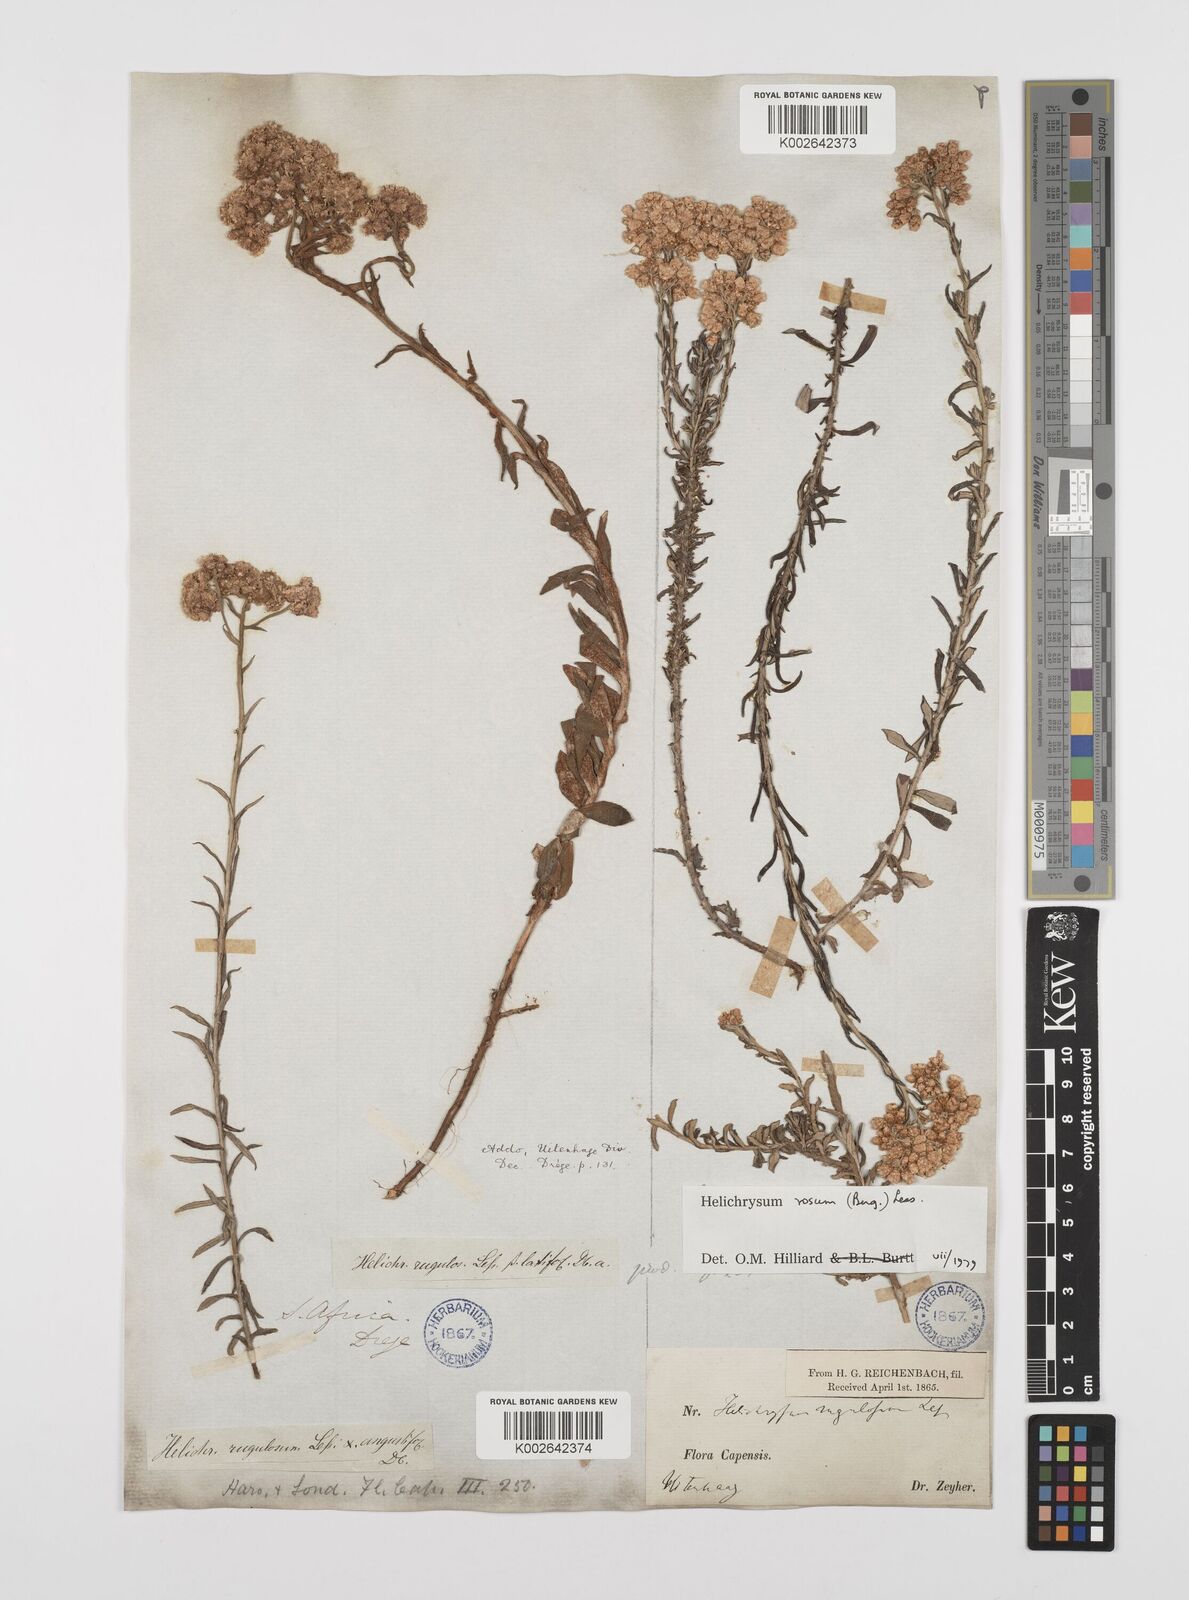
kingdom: Plantae
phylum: Tracheophyta
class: Magnoliopsida
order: Asterales
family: Asteraceae
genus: Helichrysum
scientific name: Helichrysum rugulosum
